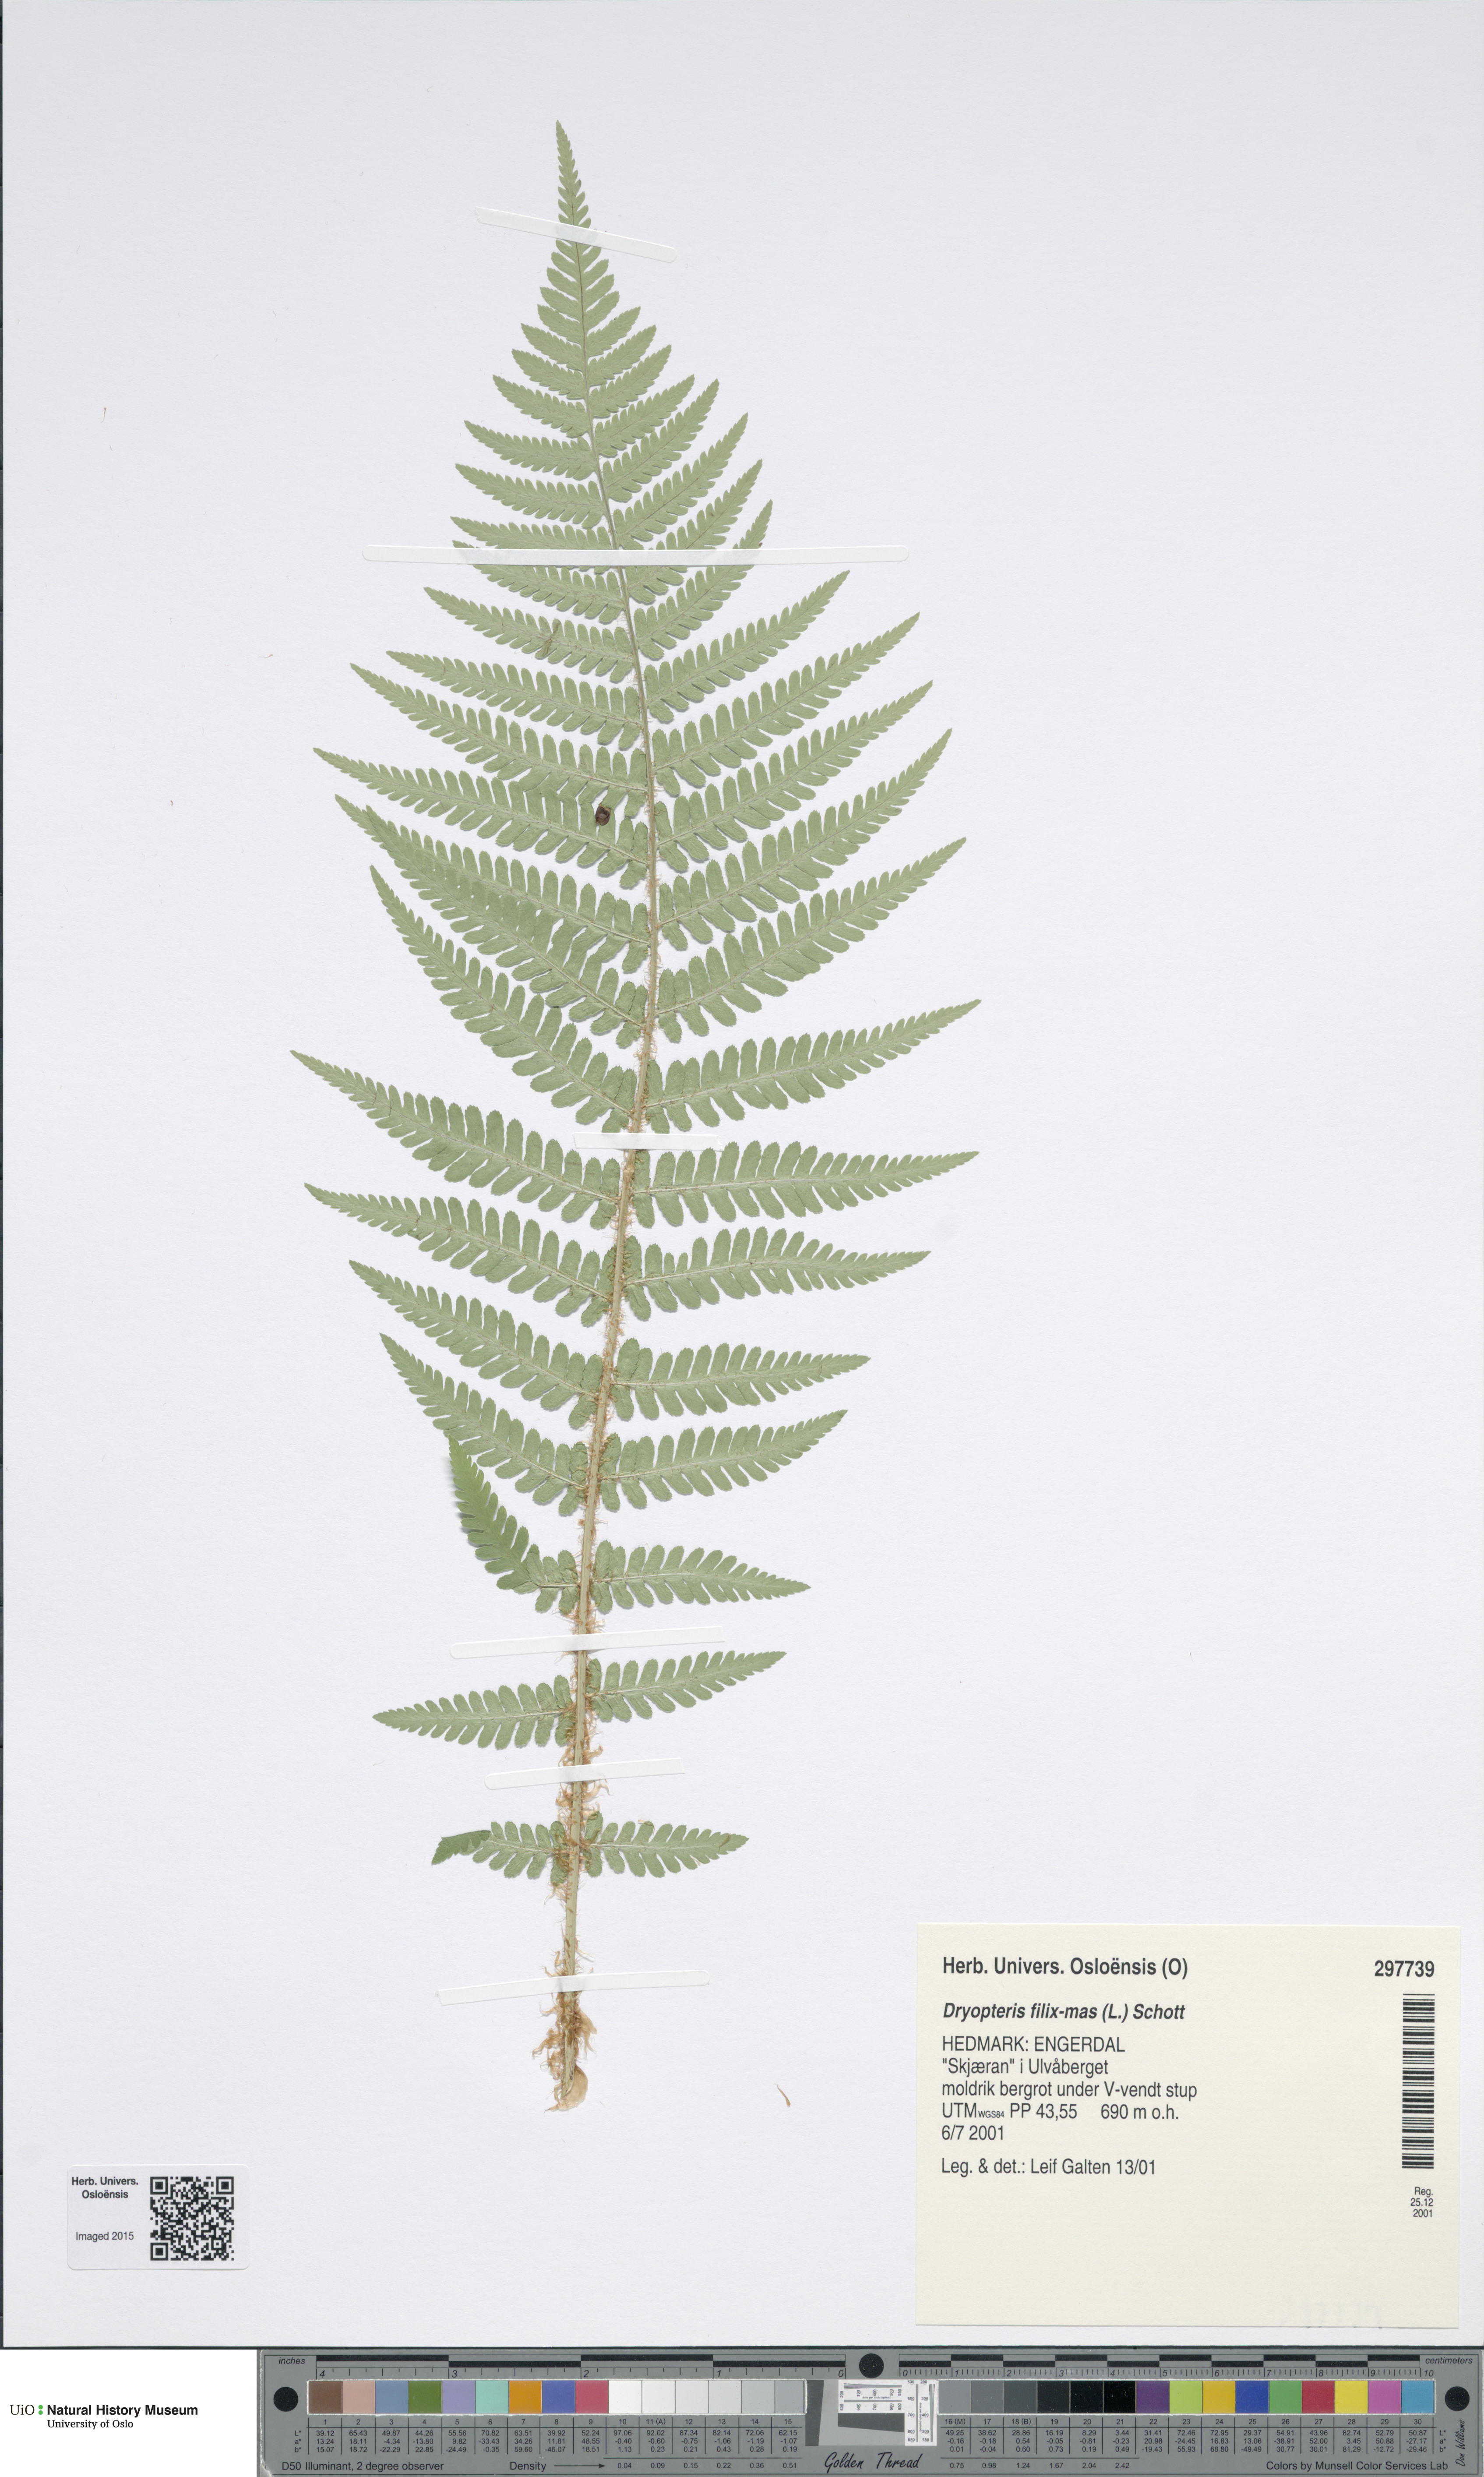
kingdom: Plantae
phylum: Tracheophyta
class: Polypodiopsida
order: Polypodiales
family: Dryopteridaceae
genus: Dryopteris
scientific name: Dryopteris filix-mas
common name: Male fern
